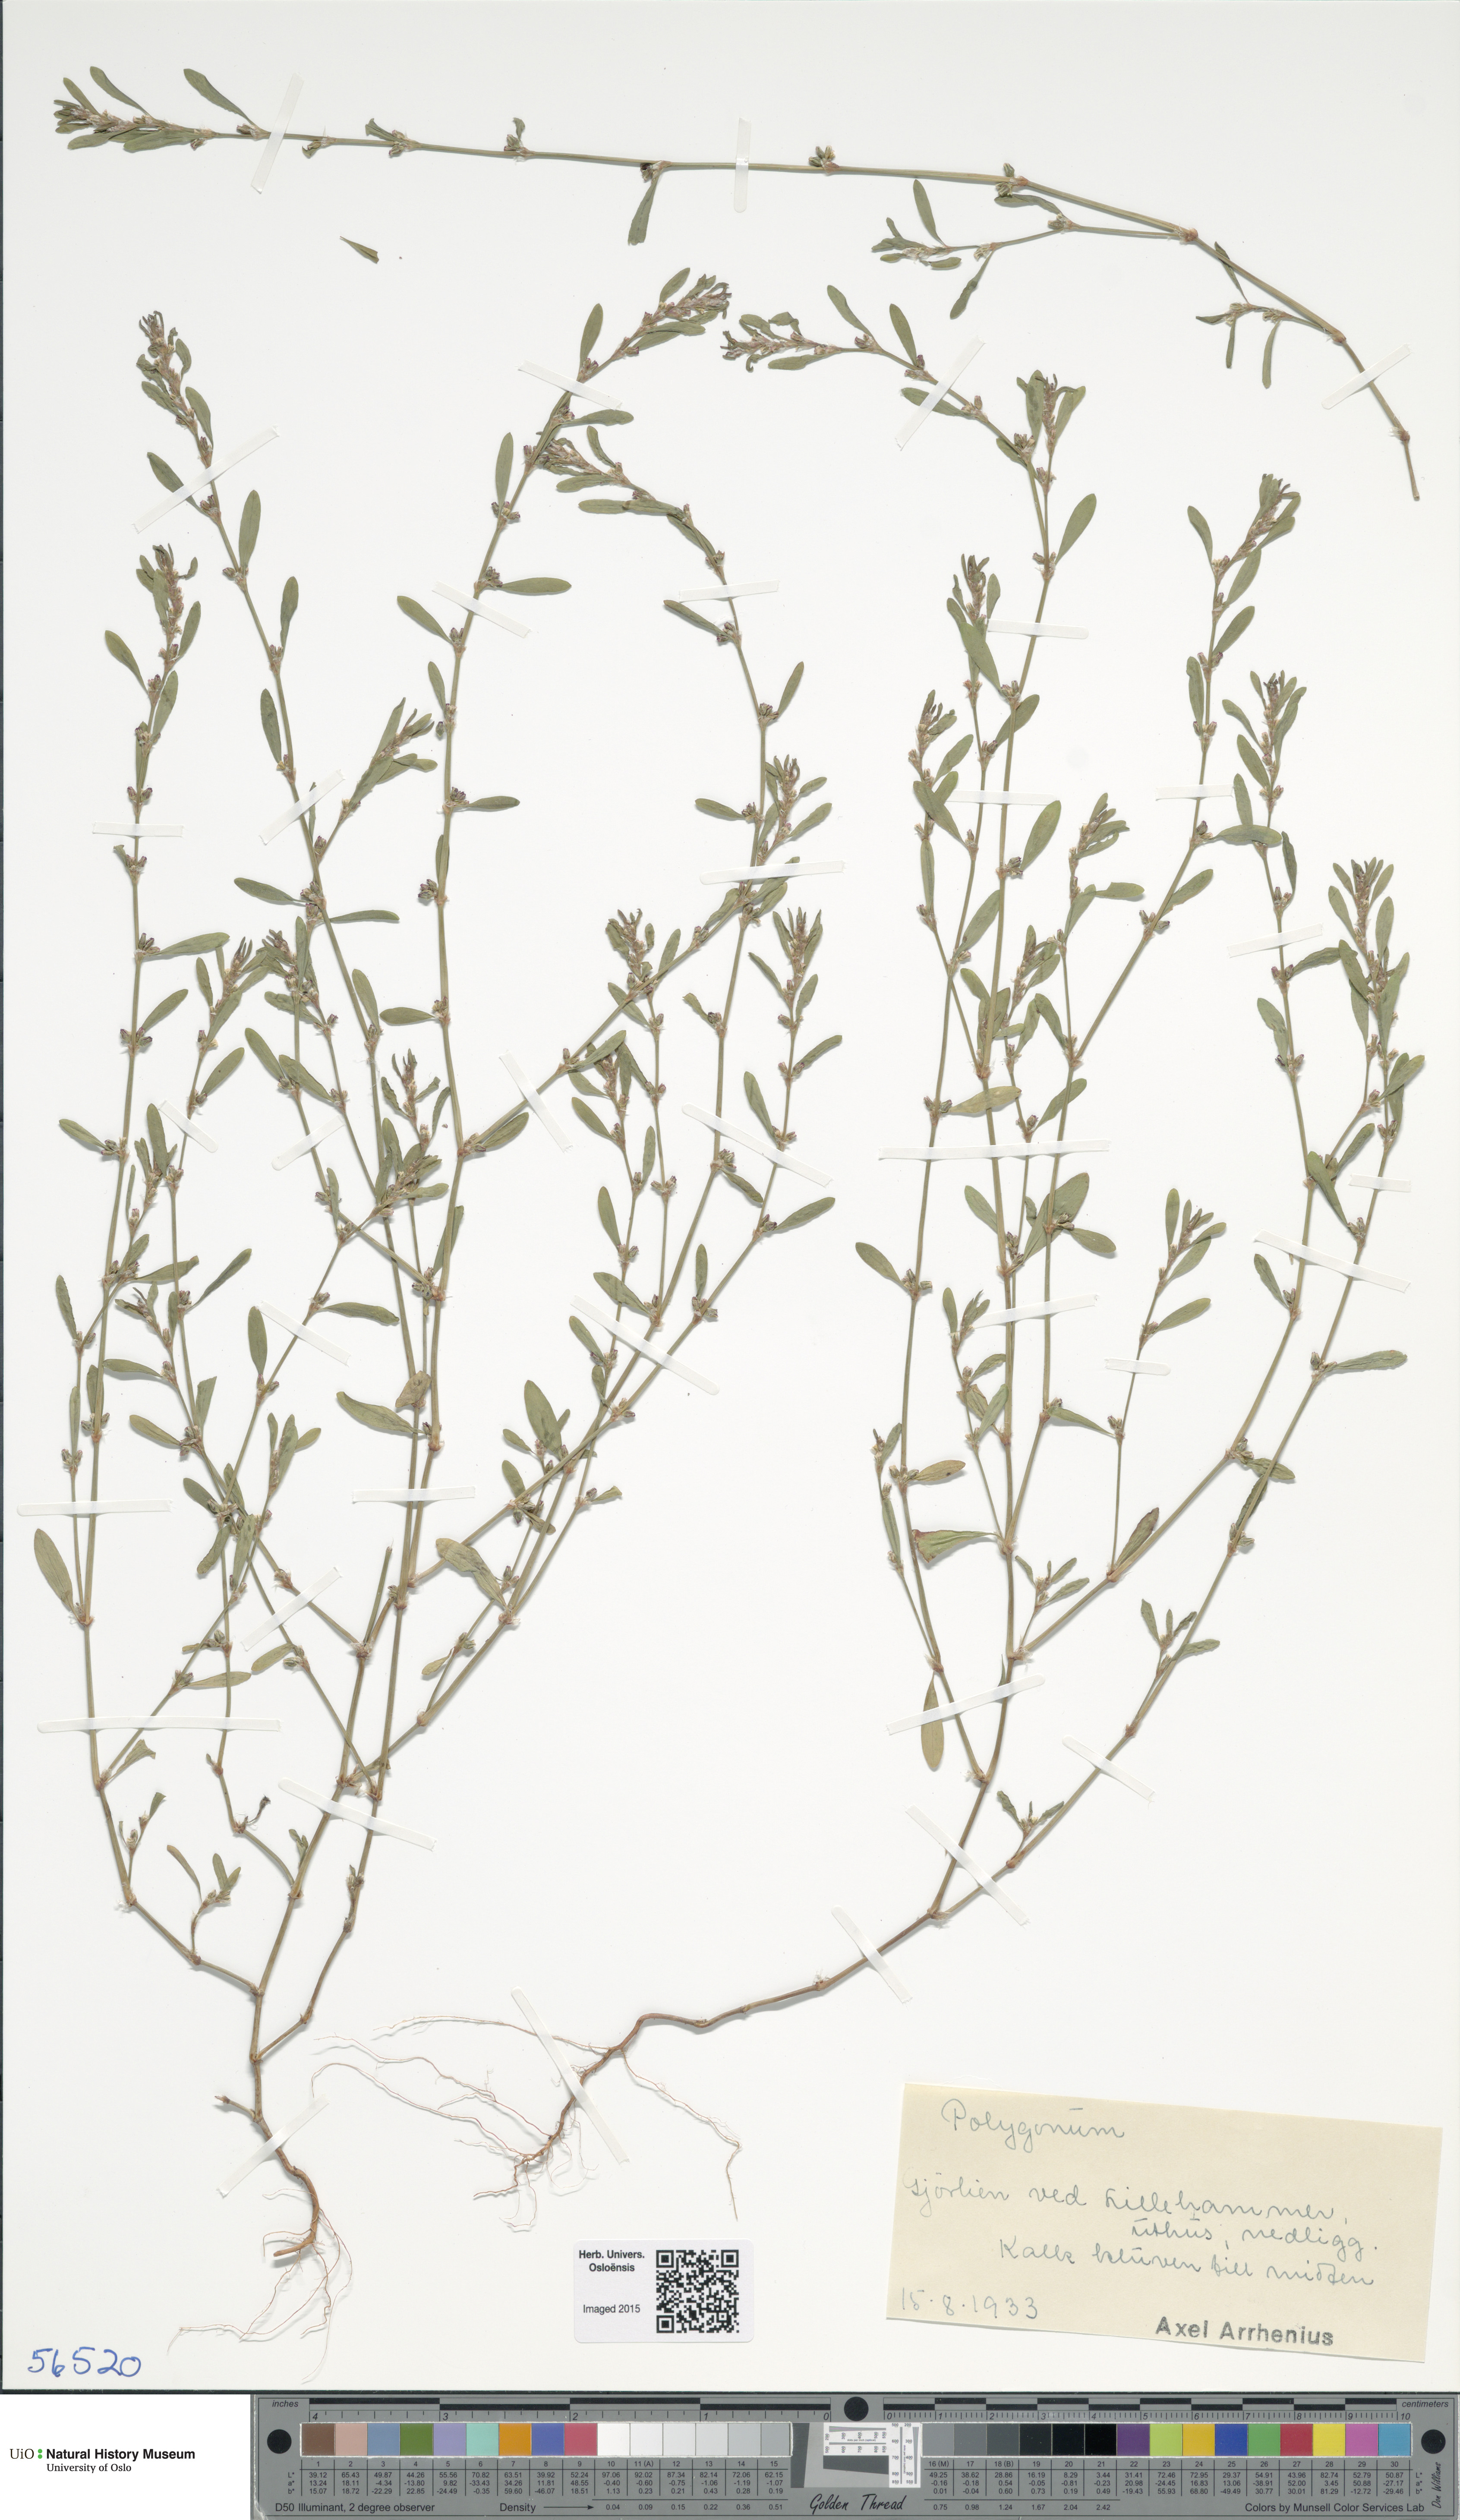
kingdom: Plantae
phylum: Tracheophyta
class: Magnoliopsida
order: Caryophyllales
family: Polygonaceae
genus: Polygonum
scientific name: Polygonum aviculare
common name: Prostrate knotweed
